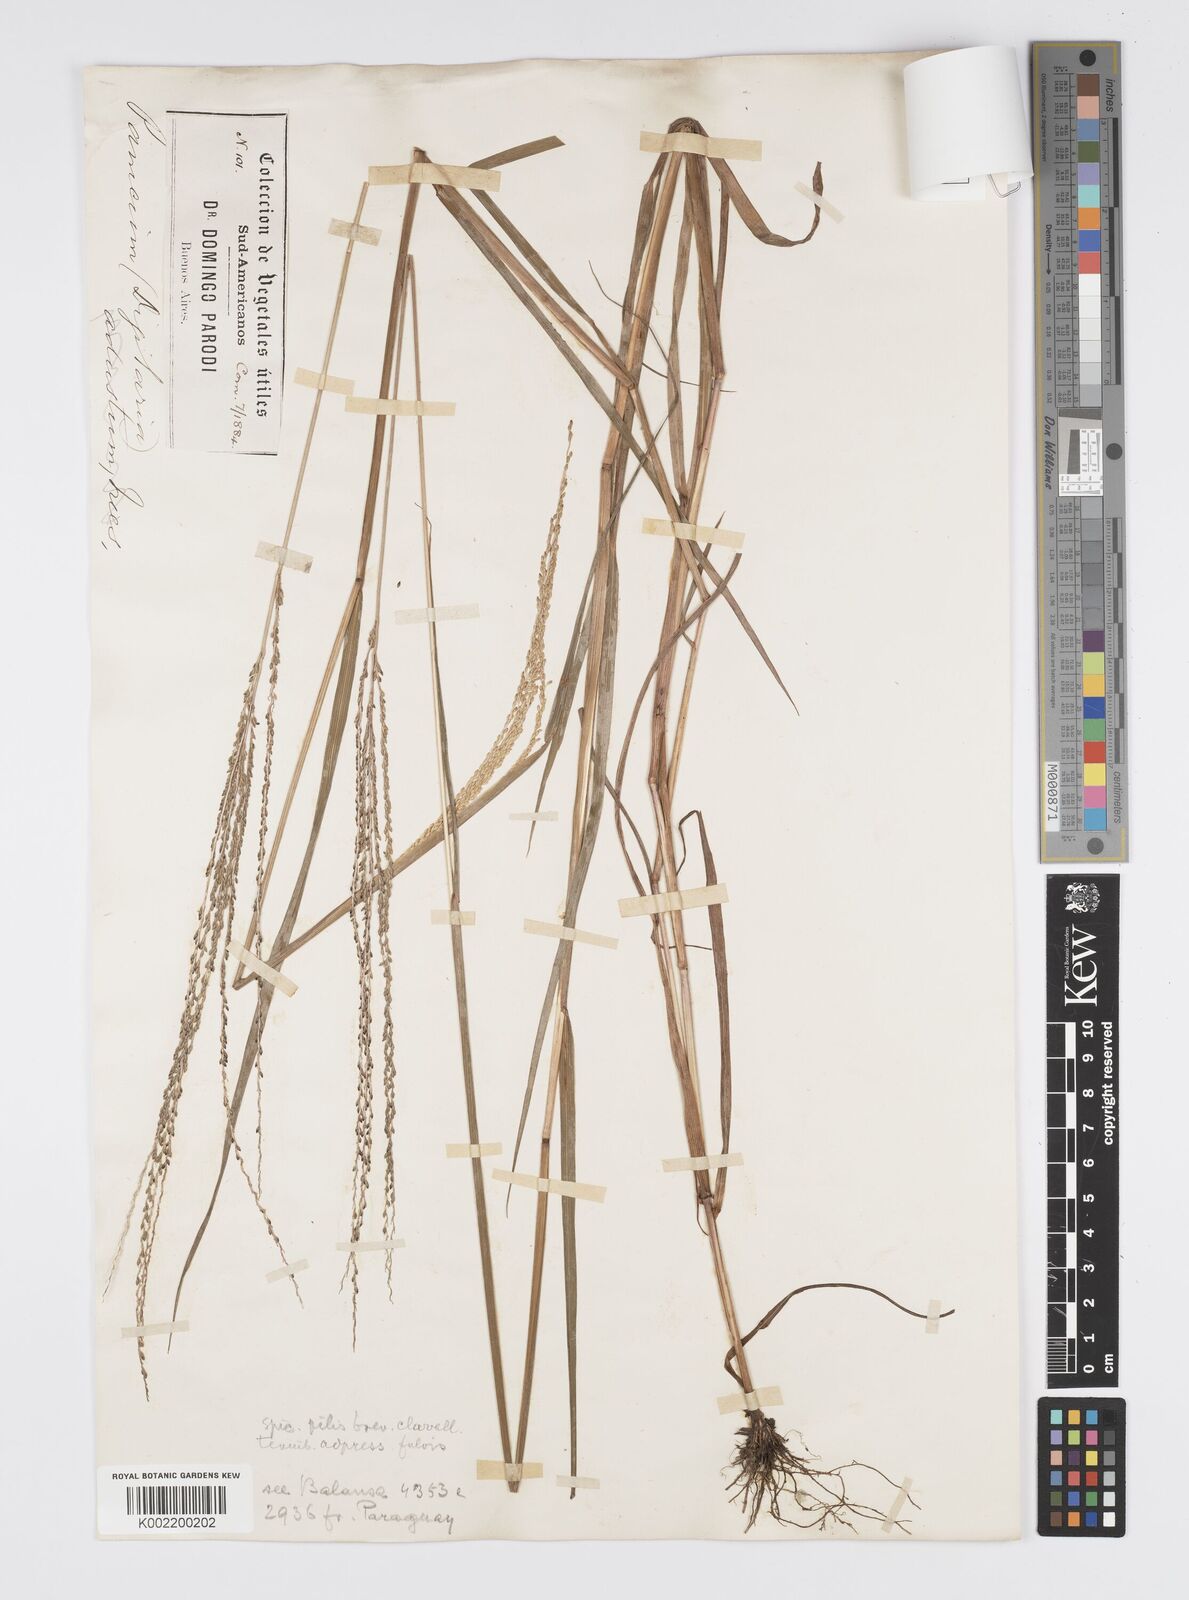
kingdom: Plantae
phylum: Tracheophyta
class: Liliopsida
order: Poales
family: Poaceae
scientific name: Poaceae
